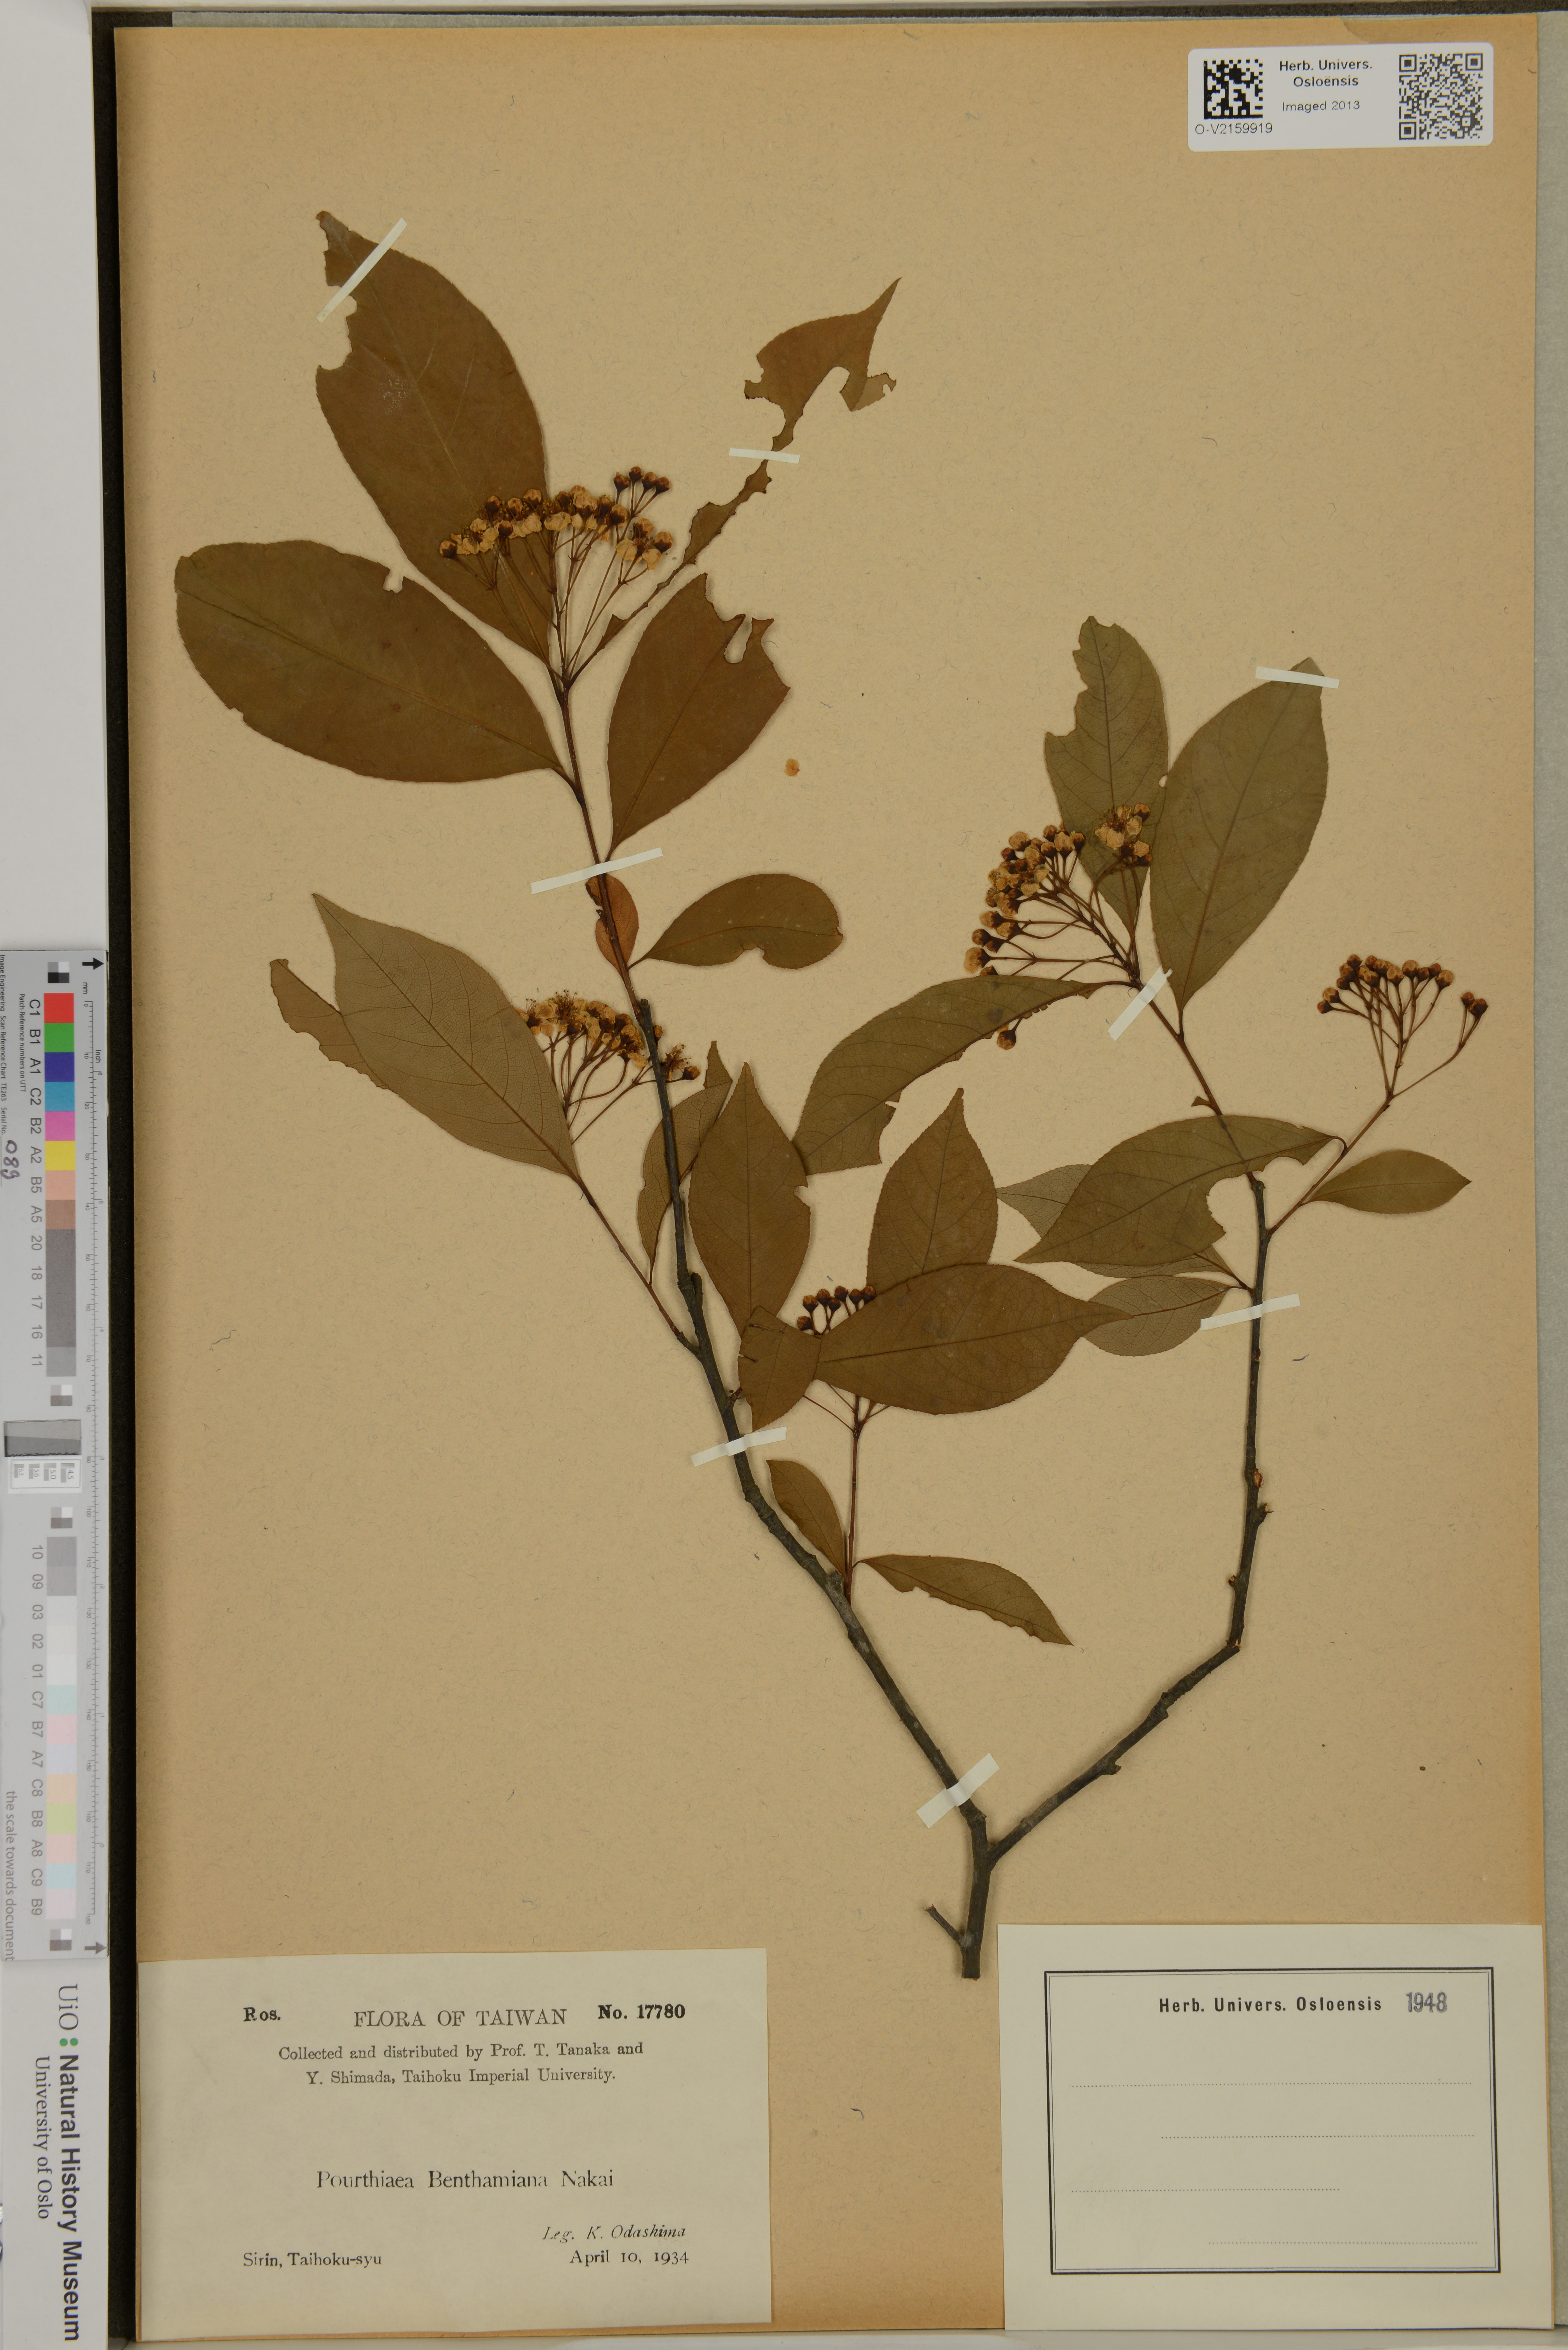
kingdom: Plantae
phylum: Tracheophyta
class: Magnoliopsida
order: Rosales
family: Rosaceae
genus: Pourthiaea
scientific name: Pourthiaea benthamiana
